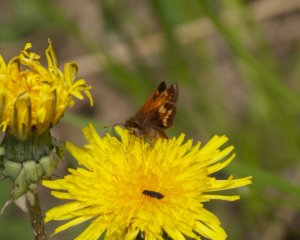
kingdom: Animalia
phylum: Arthropoda
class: Insecta
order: Lepidoptera
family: Hesperiidae
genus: Lon
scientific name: Lon hobomok
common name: Hobomok Skipper
